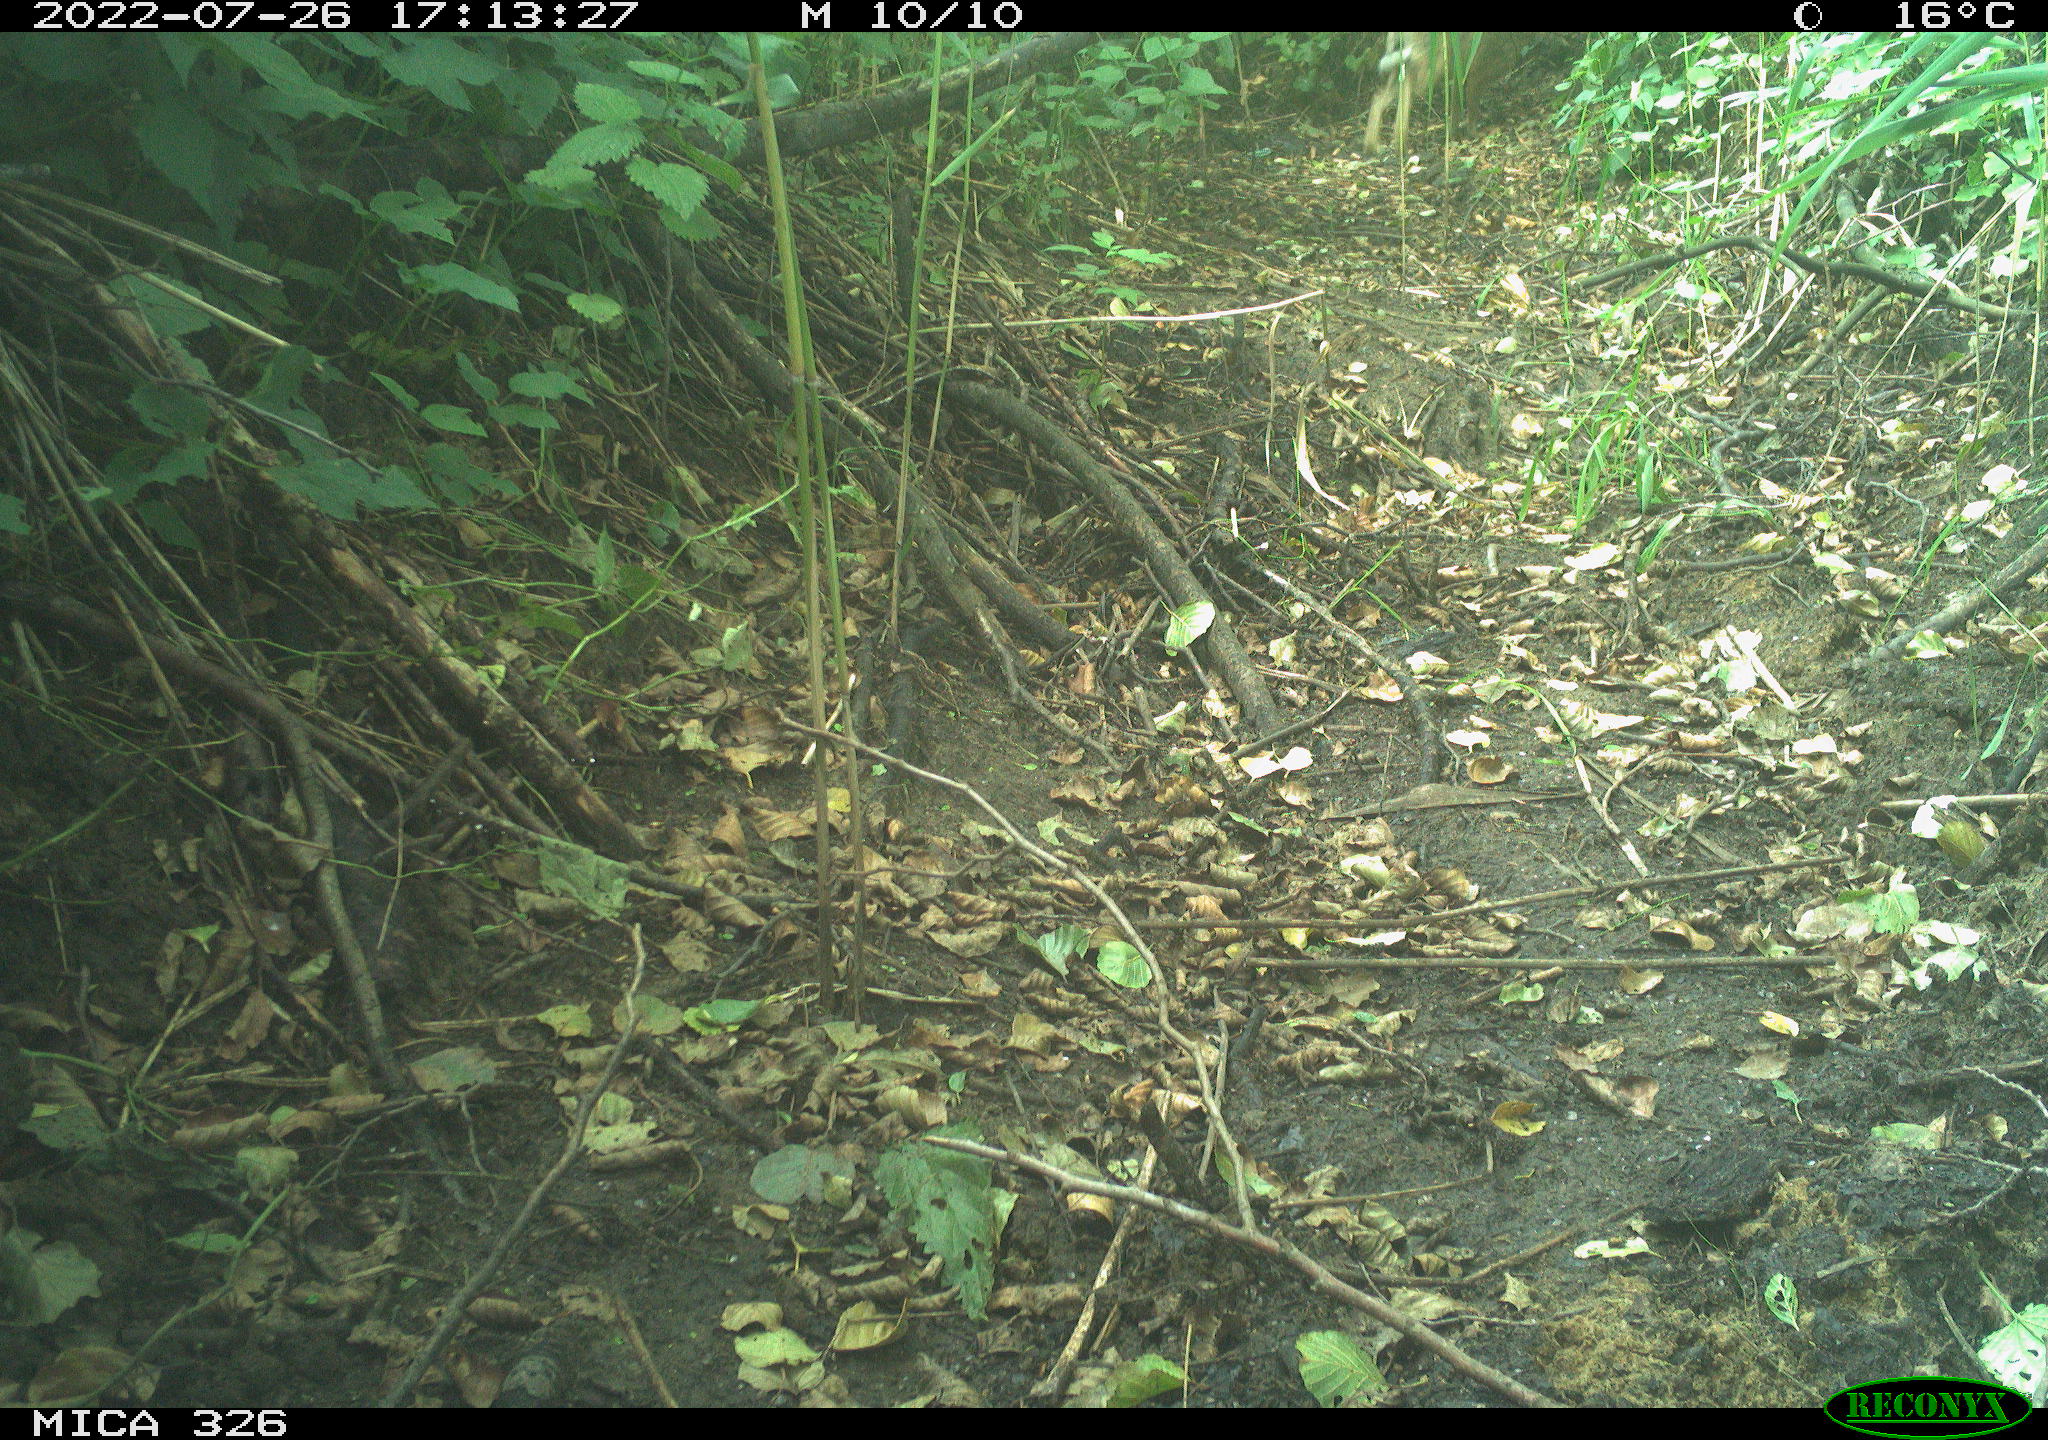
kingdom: Animalia
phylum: Chordata
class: Mammalia
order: Lagomorpha
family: Leporidae
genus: Lepus
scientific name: Lepus europaeus
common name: European hare
